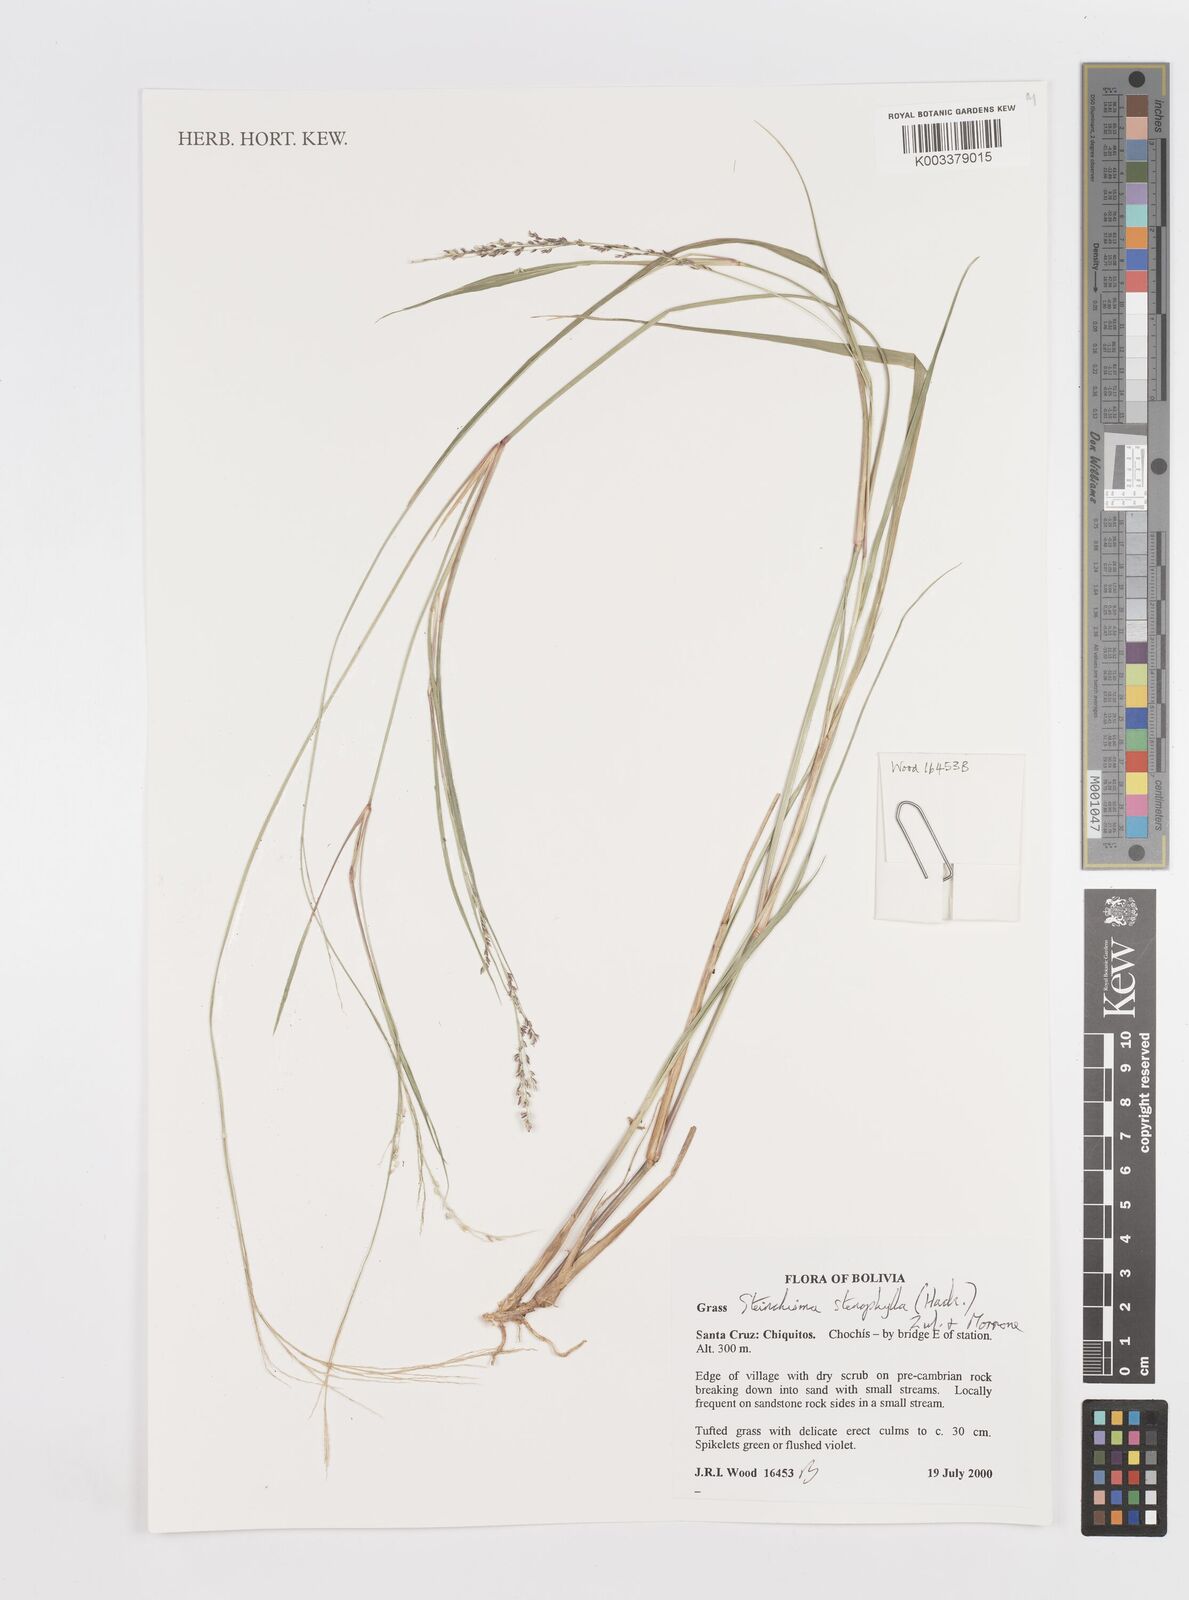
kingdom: Plantae
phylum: Tracheophyta
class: Liliopsida
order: Poales
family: Poaceae
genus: Steinchisma
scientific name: Steinchisma stenophyllum
